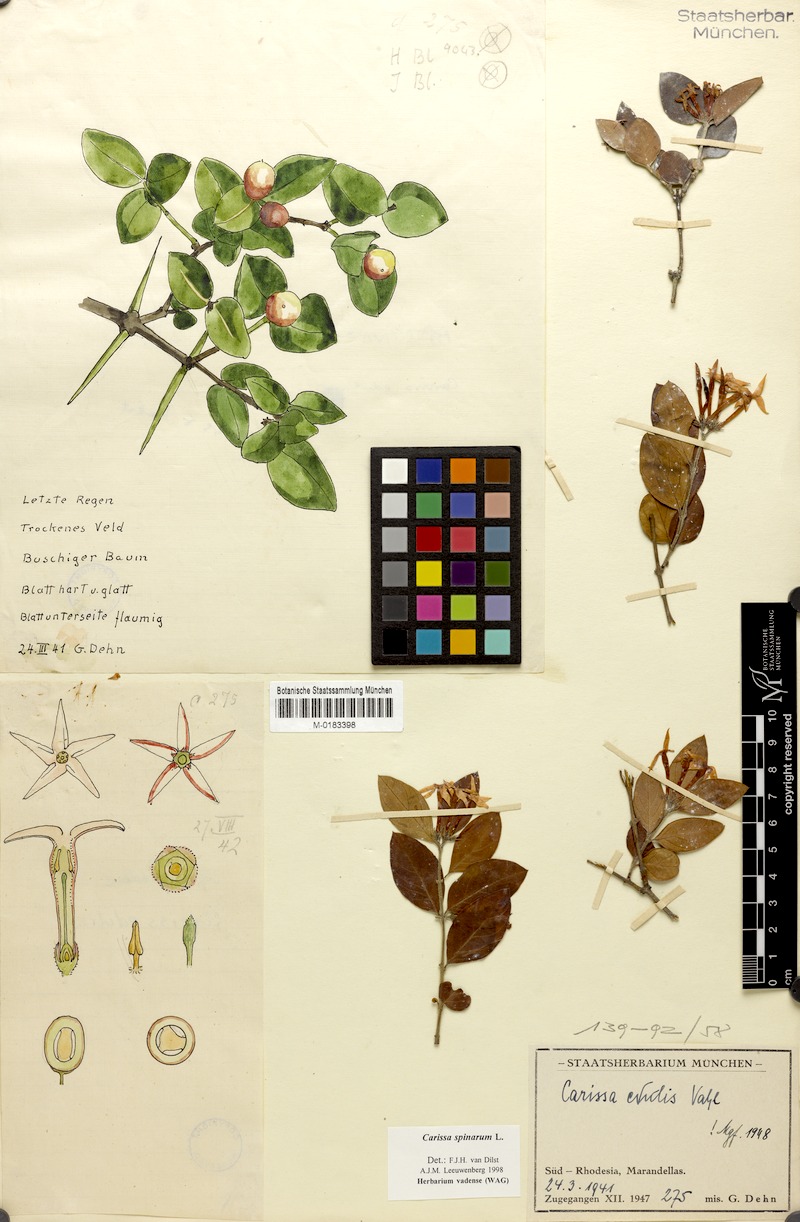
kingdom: Plantae
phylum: Tracheophyta
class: Magnoliopsida
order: Gentianales
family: Apocynaceae
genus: Carissa
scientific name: Carissa spinarum
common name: Egyptian carissa
